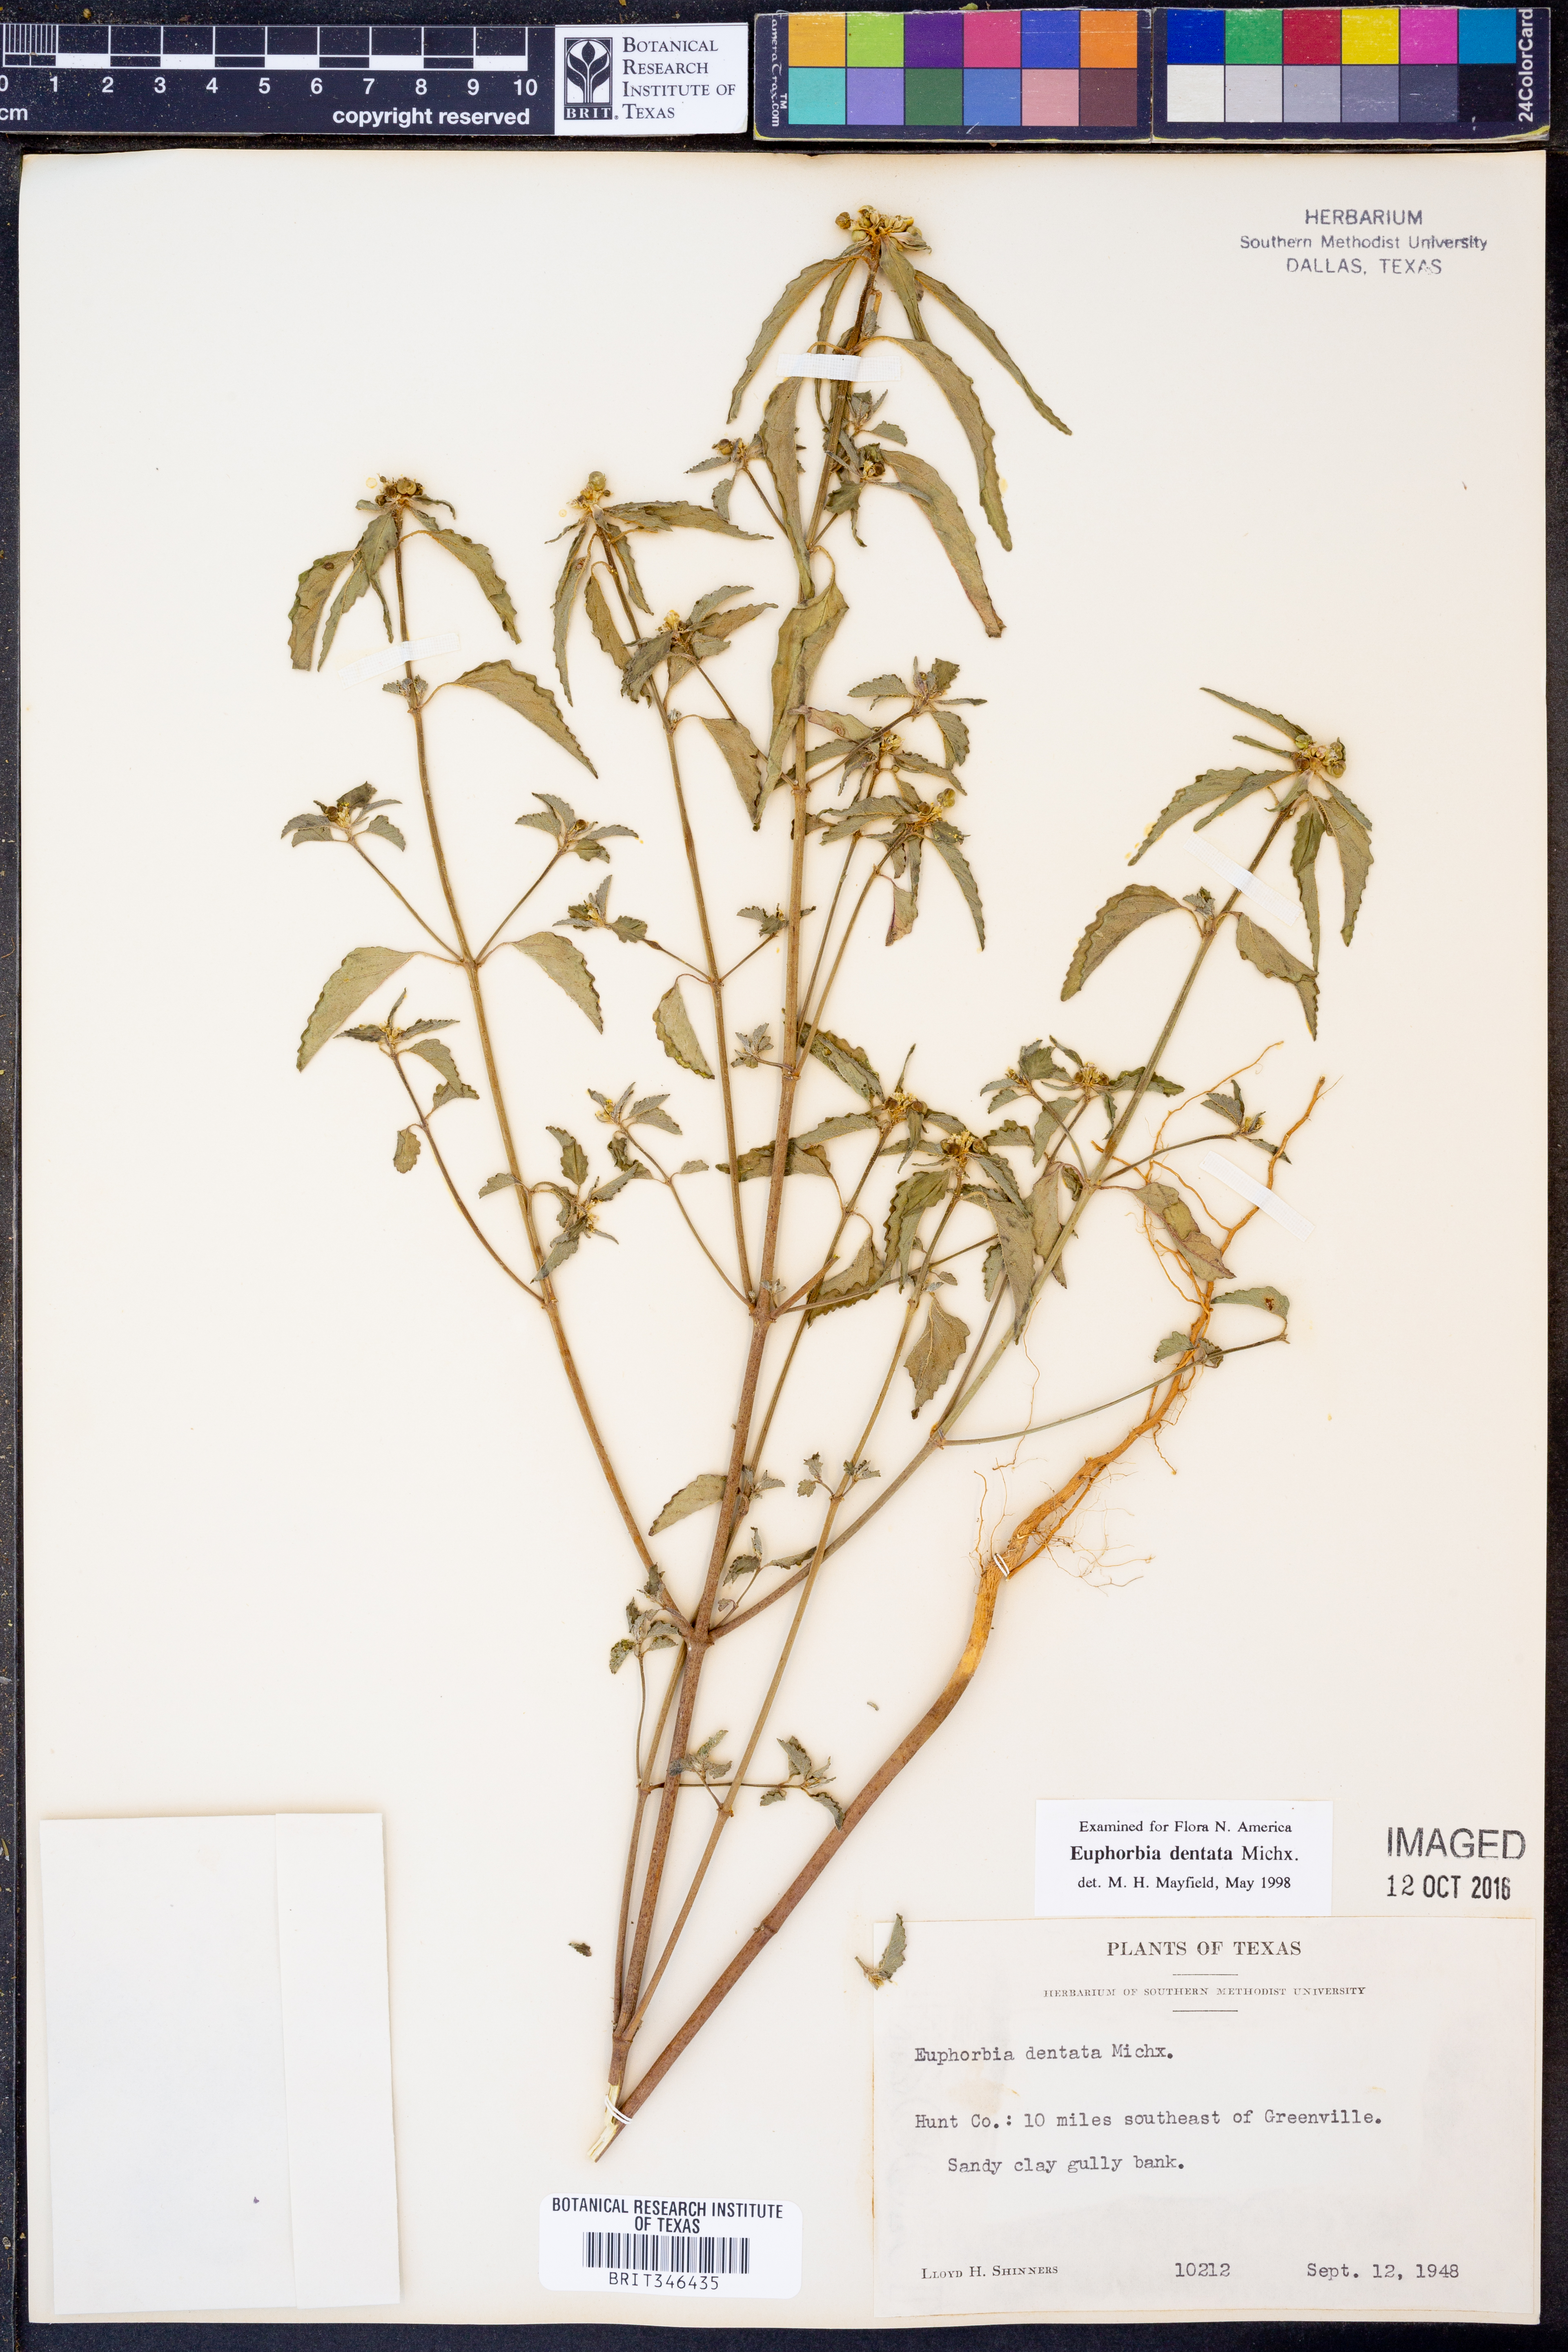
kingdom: Plantae
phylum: Tracheophyta
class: Magnoliopsida
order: Malpighiales
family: Euphorbiaceae
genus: Euphorbia
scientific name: Euphorbia dentata
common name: Dentate spurge
